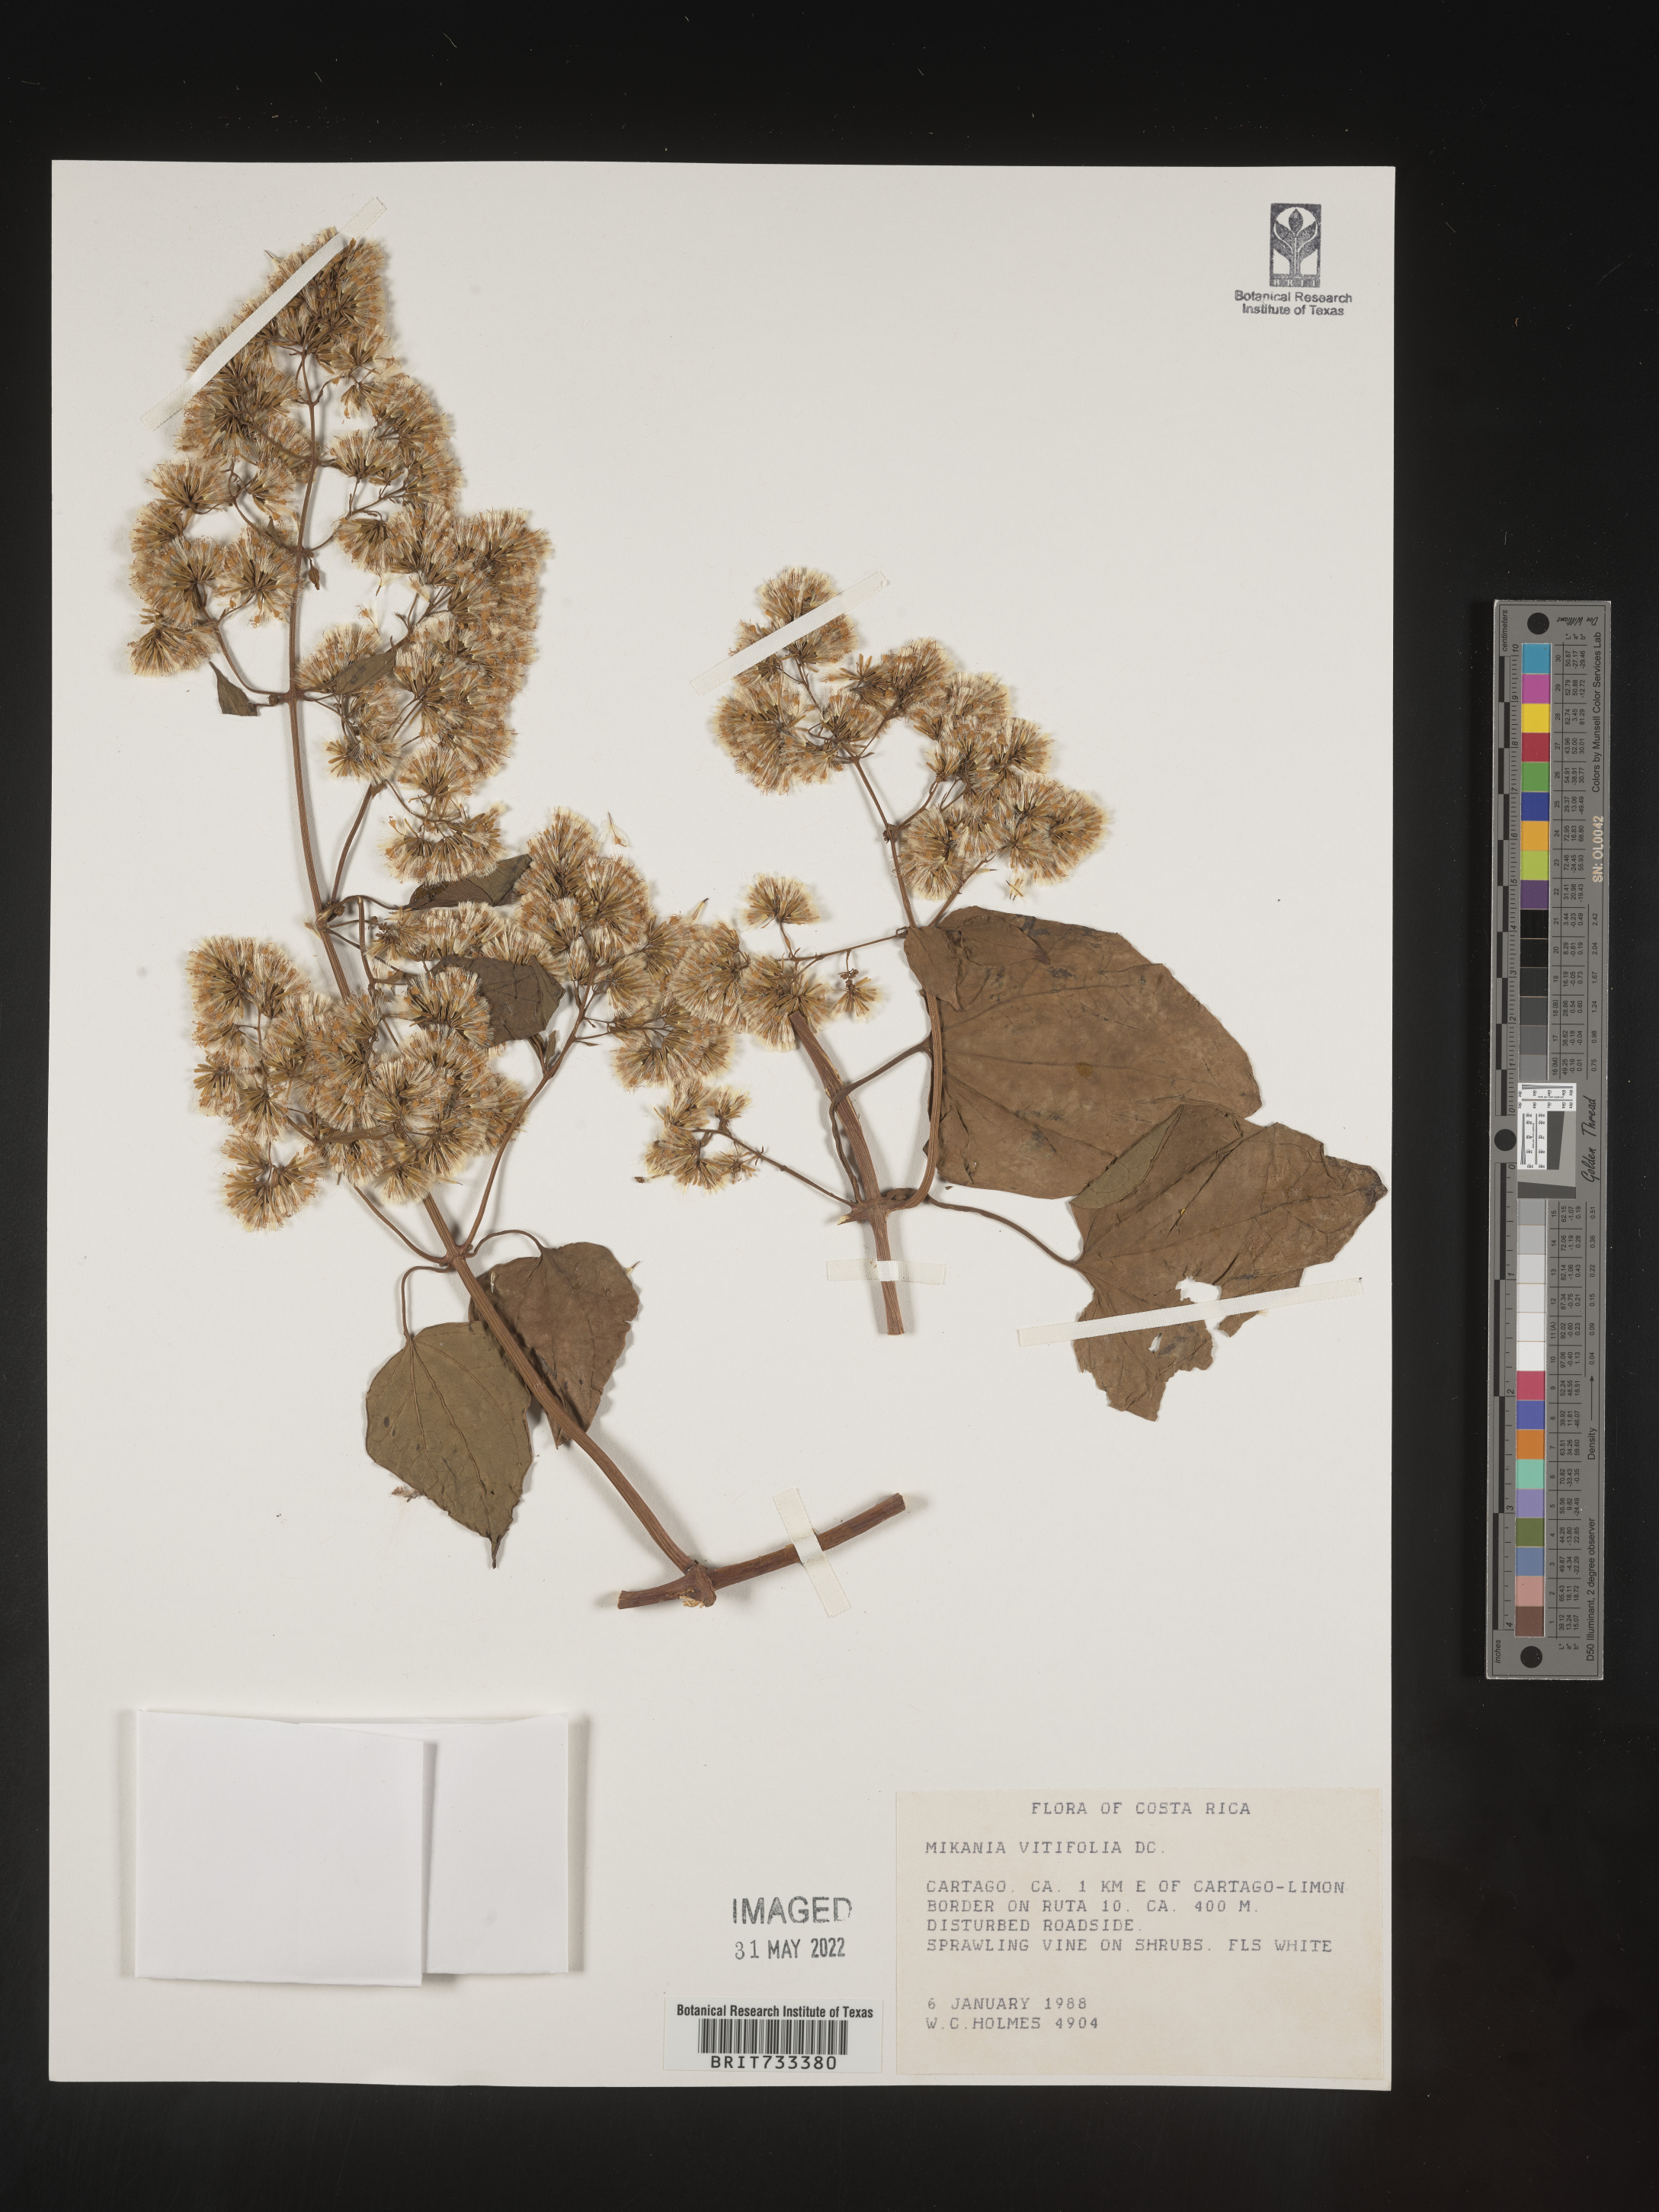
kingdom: Plantae
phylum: Tracheophyta
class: Magnoliopsida
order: Asterales
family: Asteraceae
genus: Mikania
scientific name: Mikania
